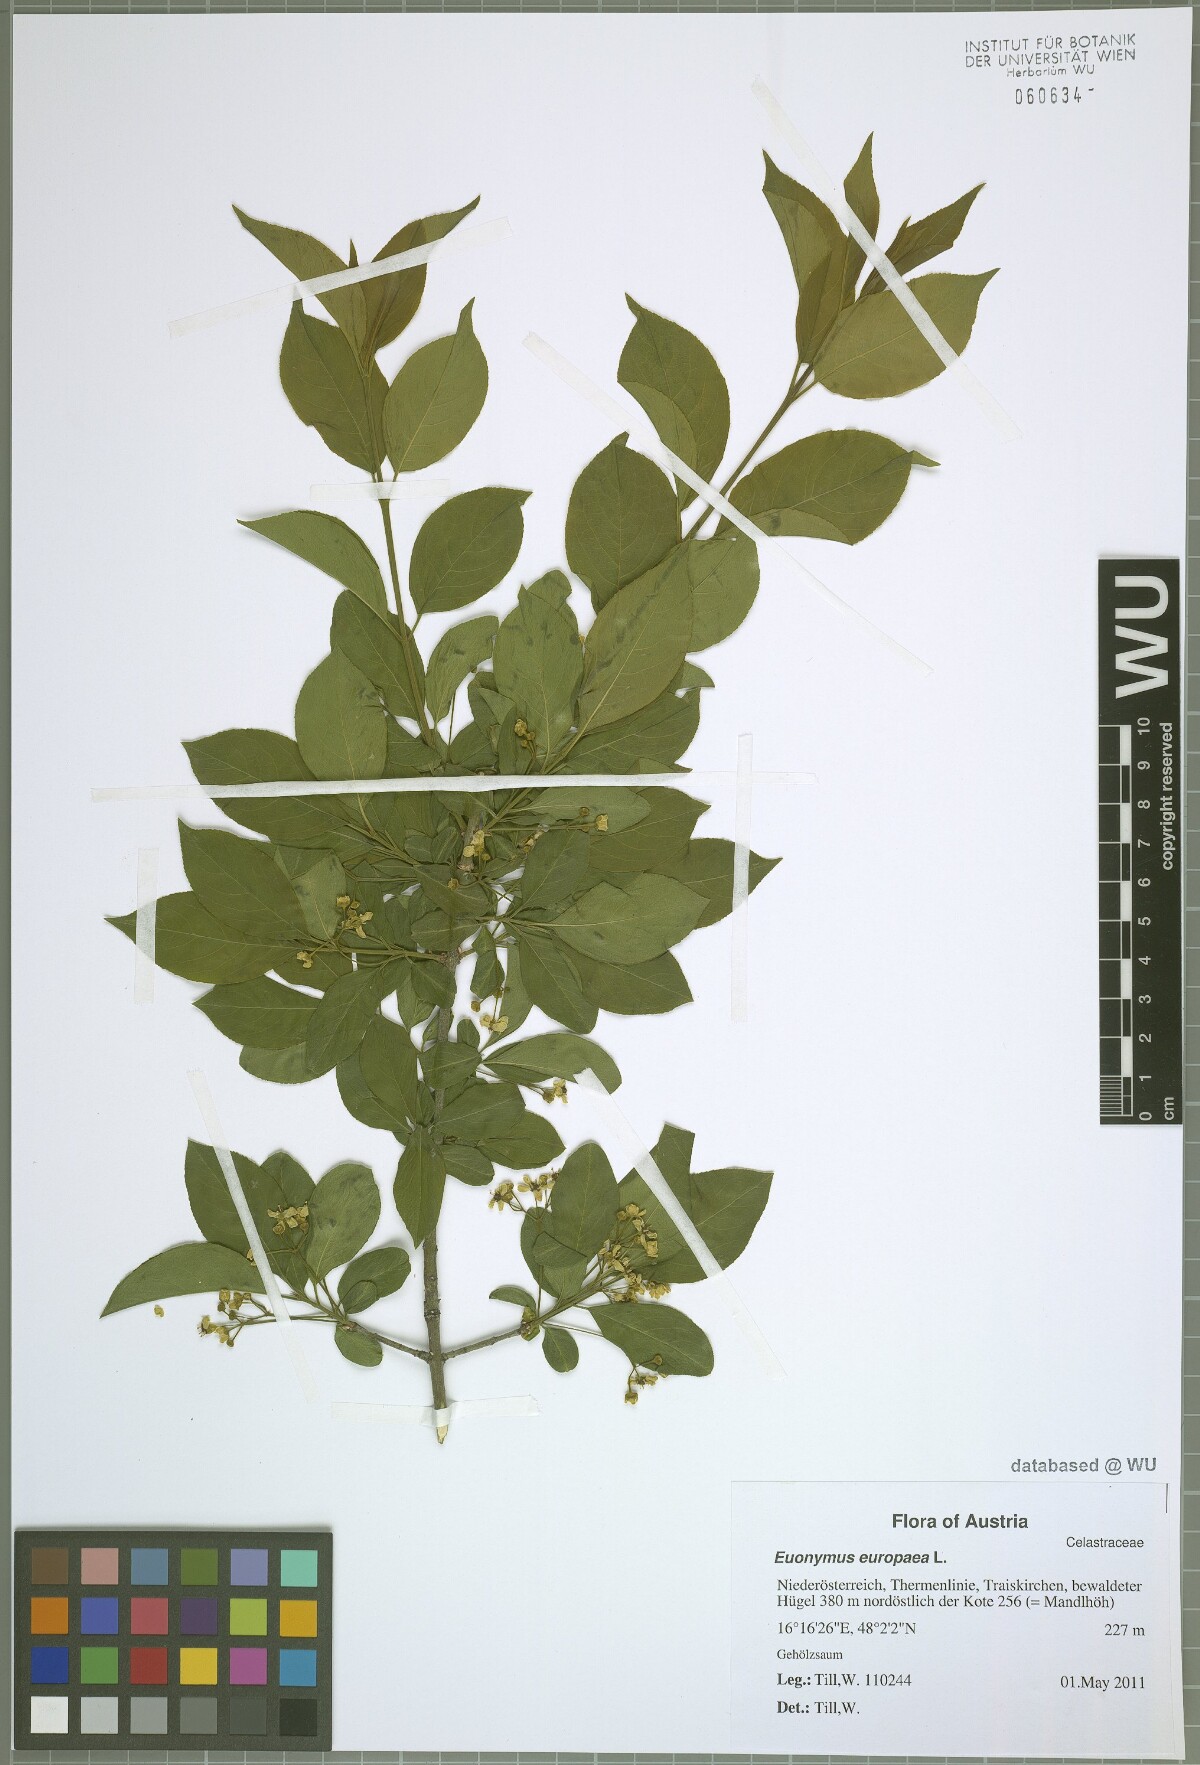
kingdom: Plantae
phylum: Tracheophyta
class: Magnoliopsida
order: Celastrales
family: Celastraceae
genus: Euonymus
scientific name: Euonymus europaeus
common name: Spindle
